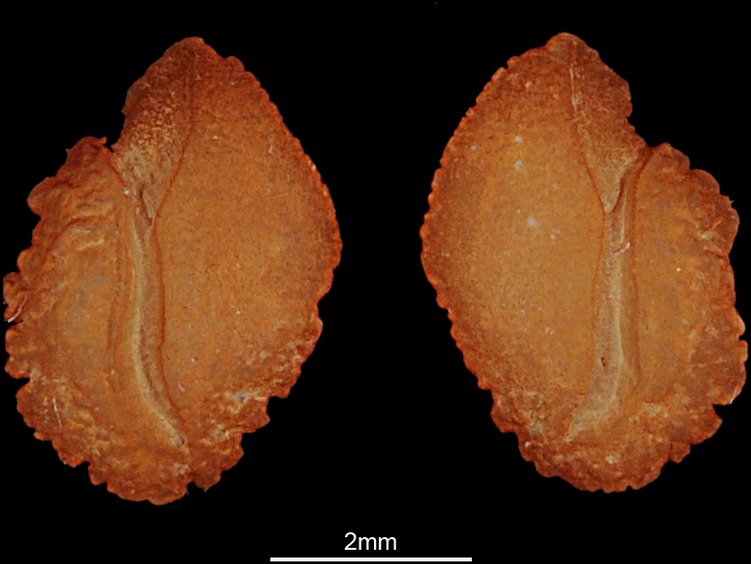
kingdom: Animalia
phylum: Chordata
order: Perciformes
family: Monodactylidae
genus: Monodactylus
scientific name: Monodactylus argenteus
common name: Silver moony
